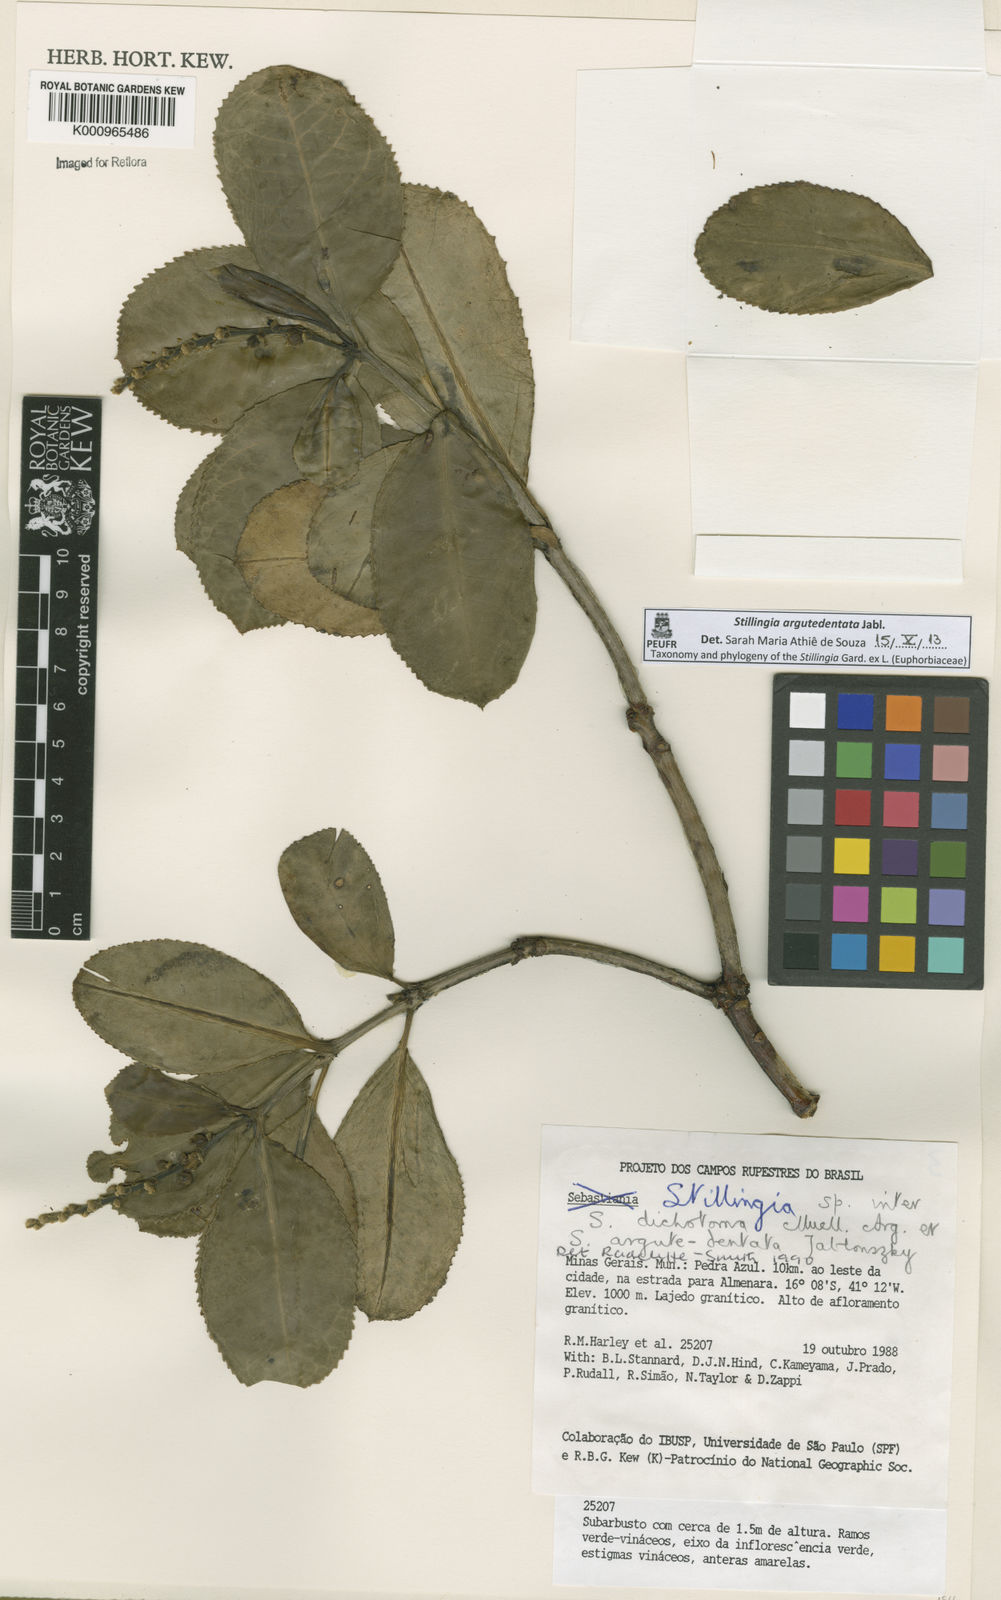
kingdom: Plantae
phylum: Tracheophyta
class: Magnoliopsida
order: Malpighiales
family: Euphorbiaceae
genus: Stillingia
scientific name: Stillingia argutedentata
